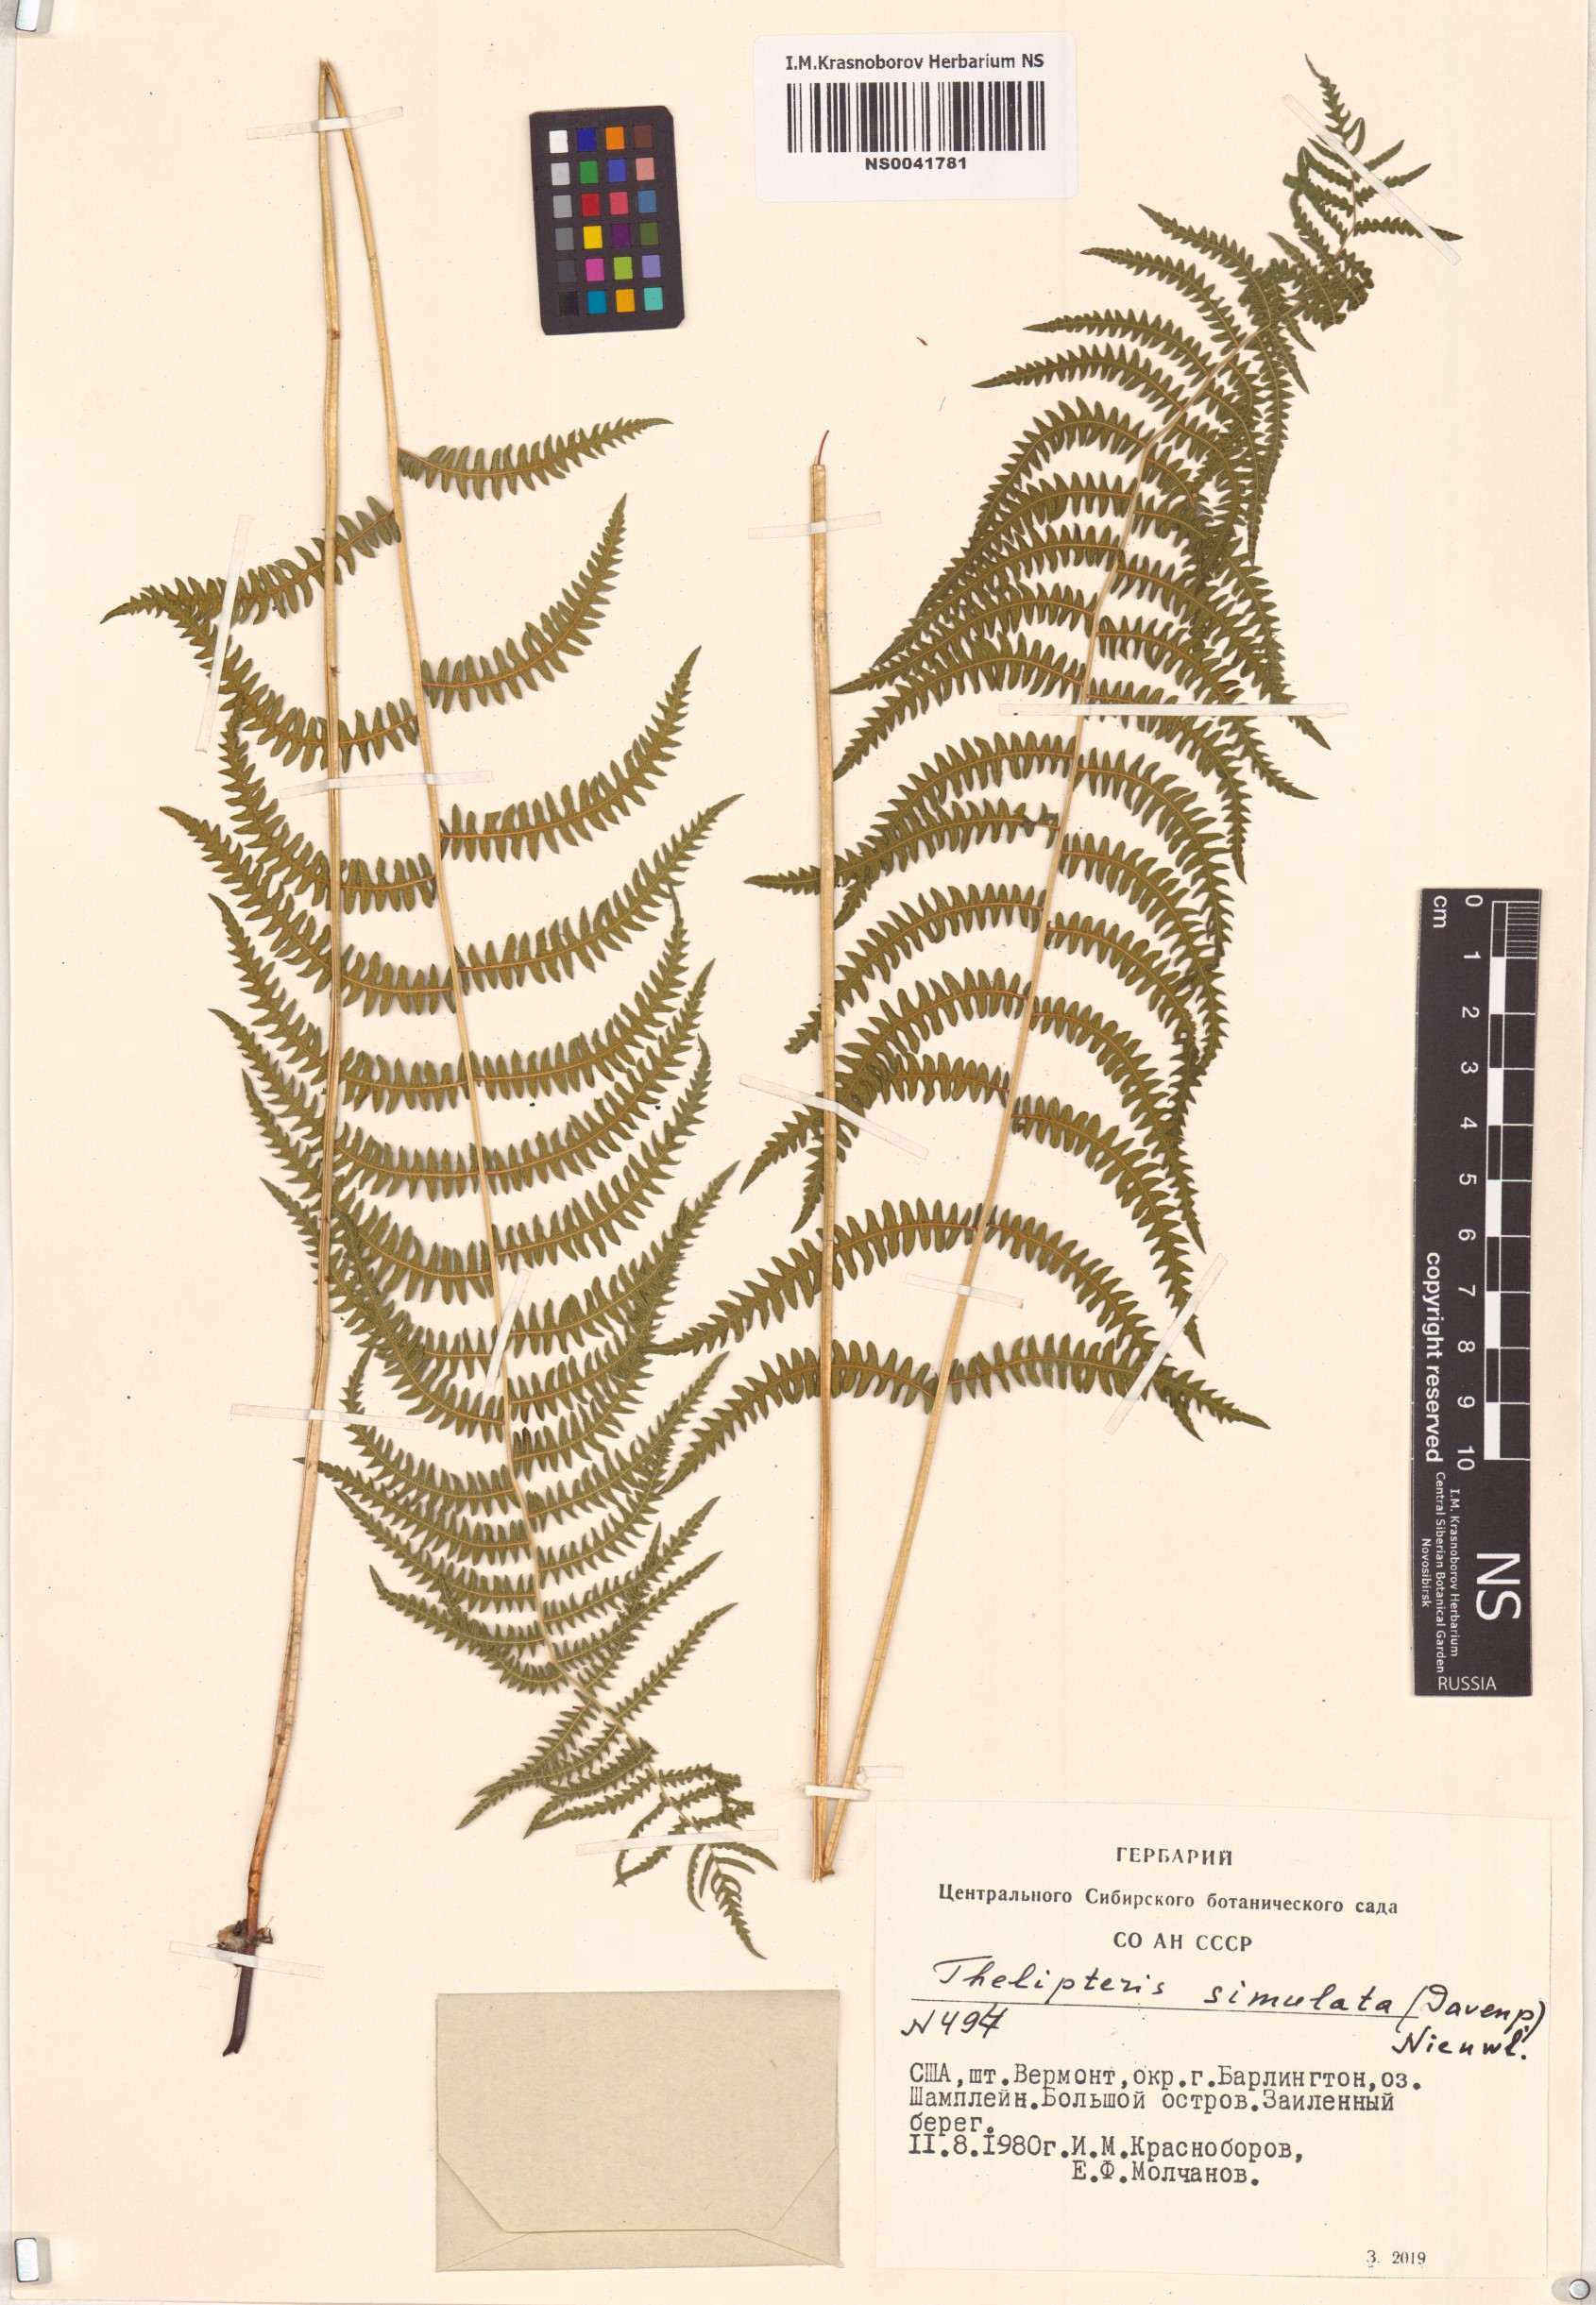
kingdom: Plantae
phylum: Tracheophyta
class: Polypodiopsida
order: Polypodiales
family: Thelypteridaceae
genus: Coryphopteris
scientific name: Coryphopteris simulata
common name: Bog fern
